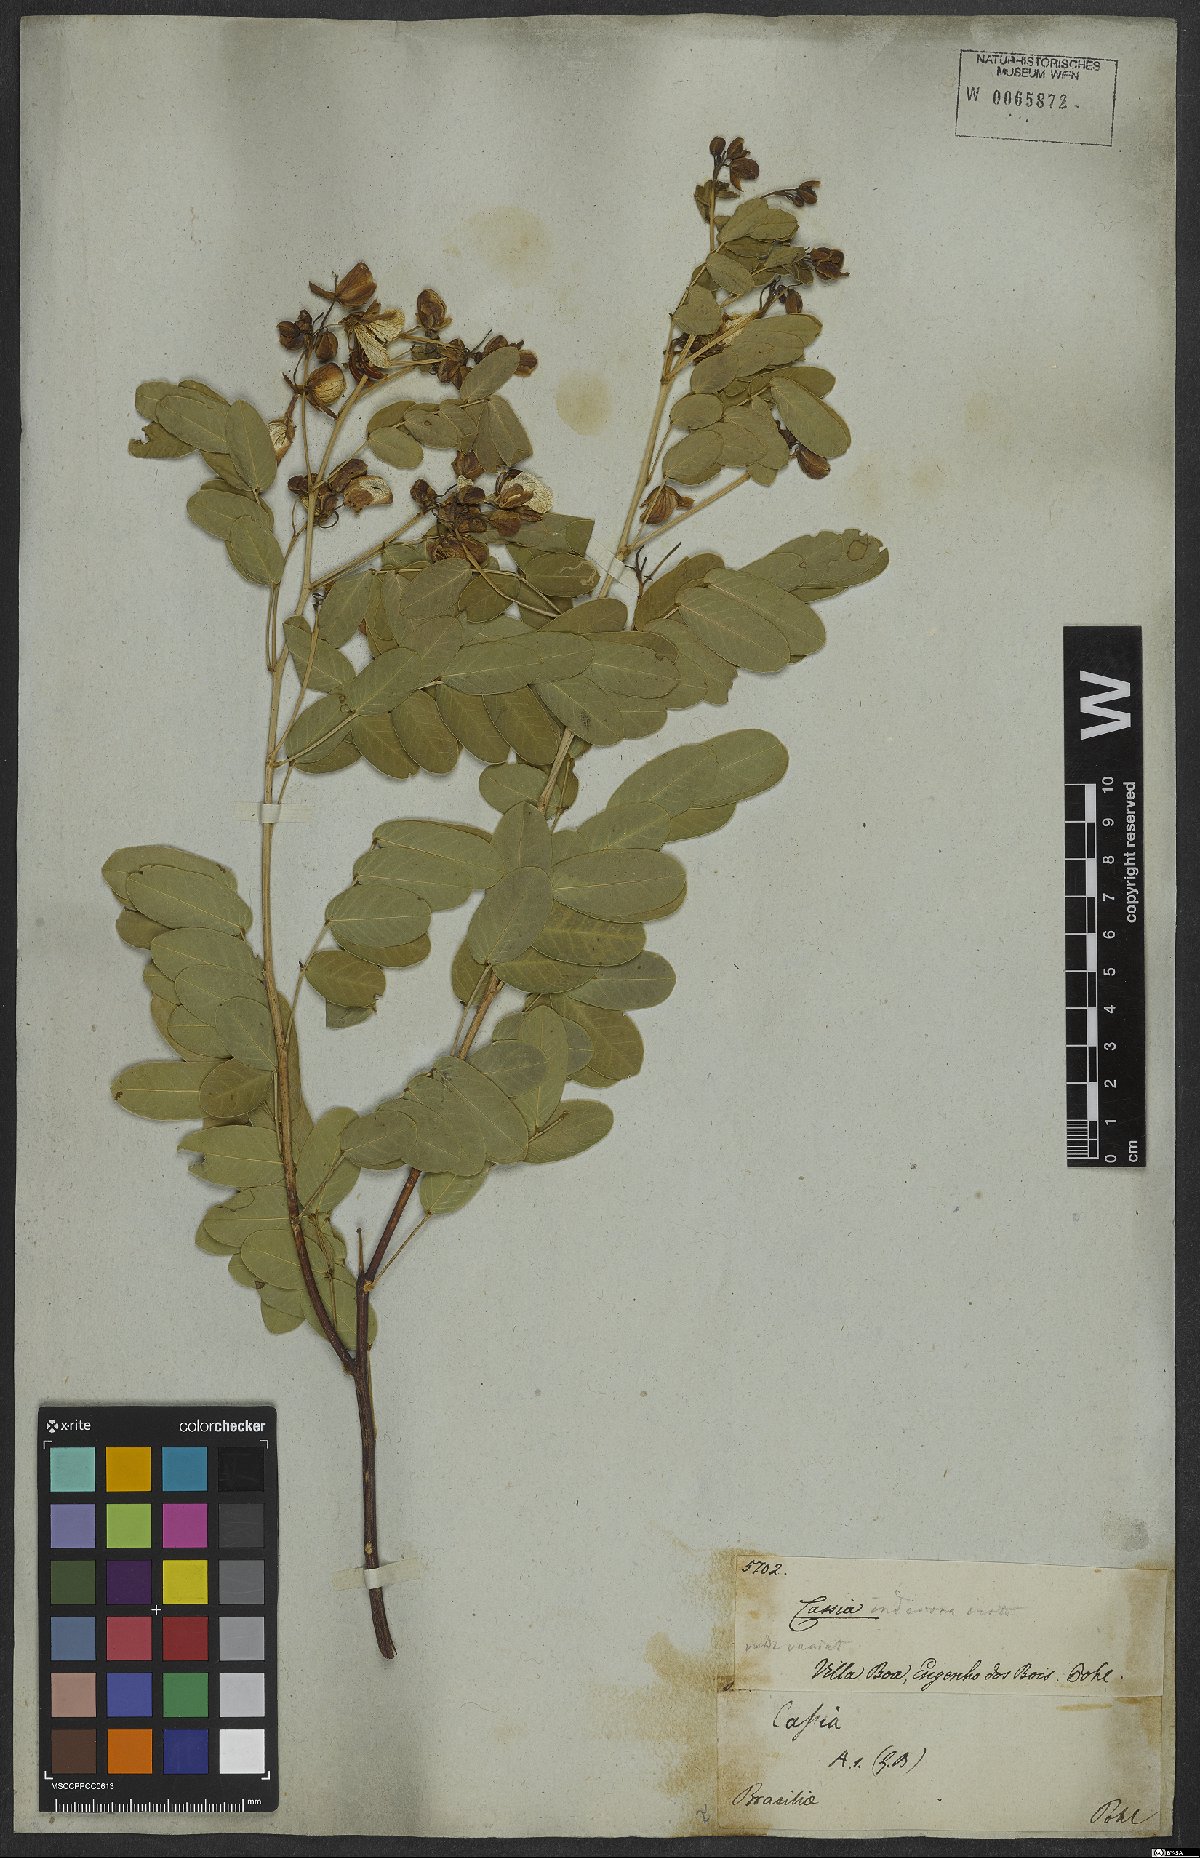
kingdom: Plantae
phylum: Tracheophyta
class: Magnoliopsida
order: Fabales
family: Fabaceae
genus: Senna
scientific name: Senna bicapsularis
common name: Christmasbush
